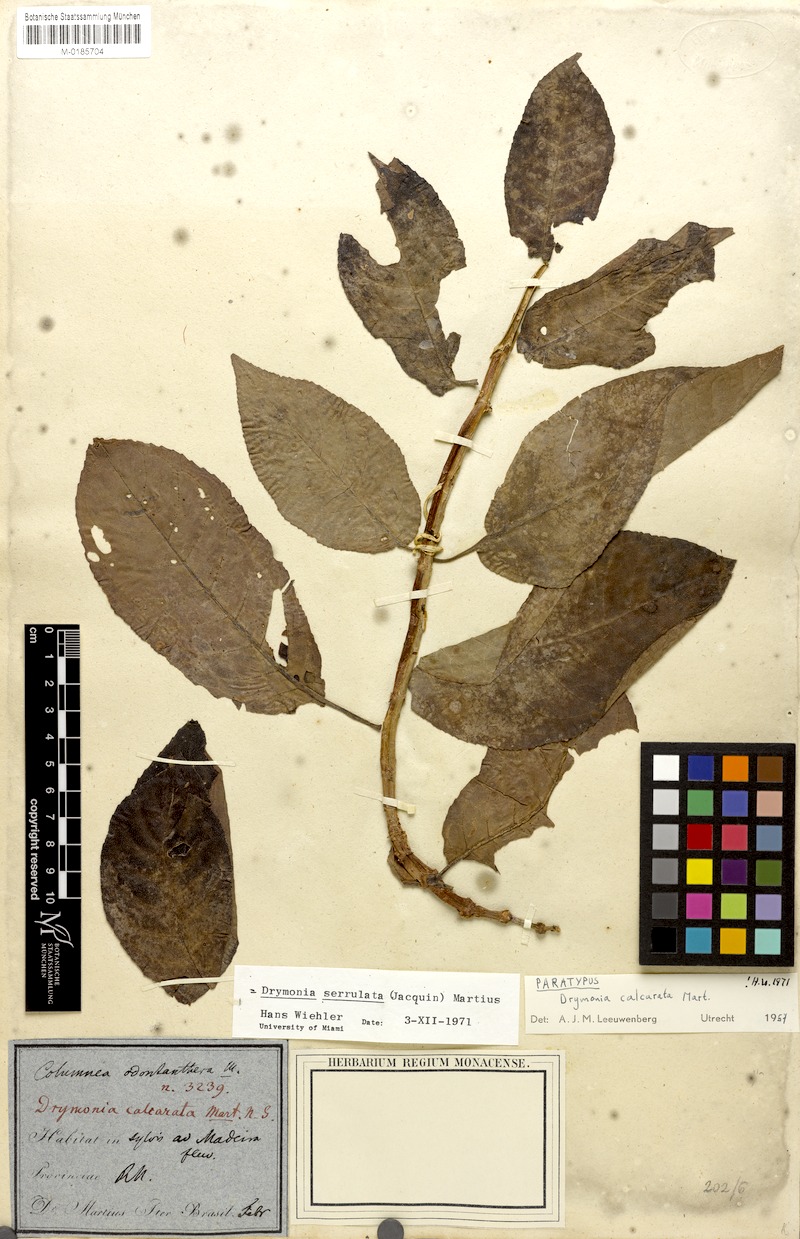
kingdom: Plantae
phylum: Tracheophyta
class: Magnoliopsida
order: Lamiales
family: Gesneriaceae
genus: Drymonia
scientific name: Drymonia serrulata
